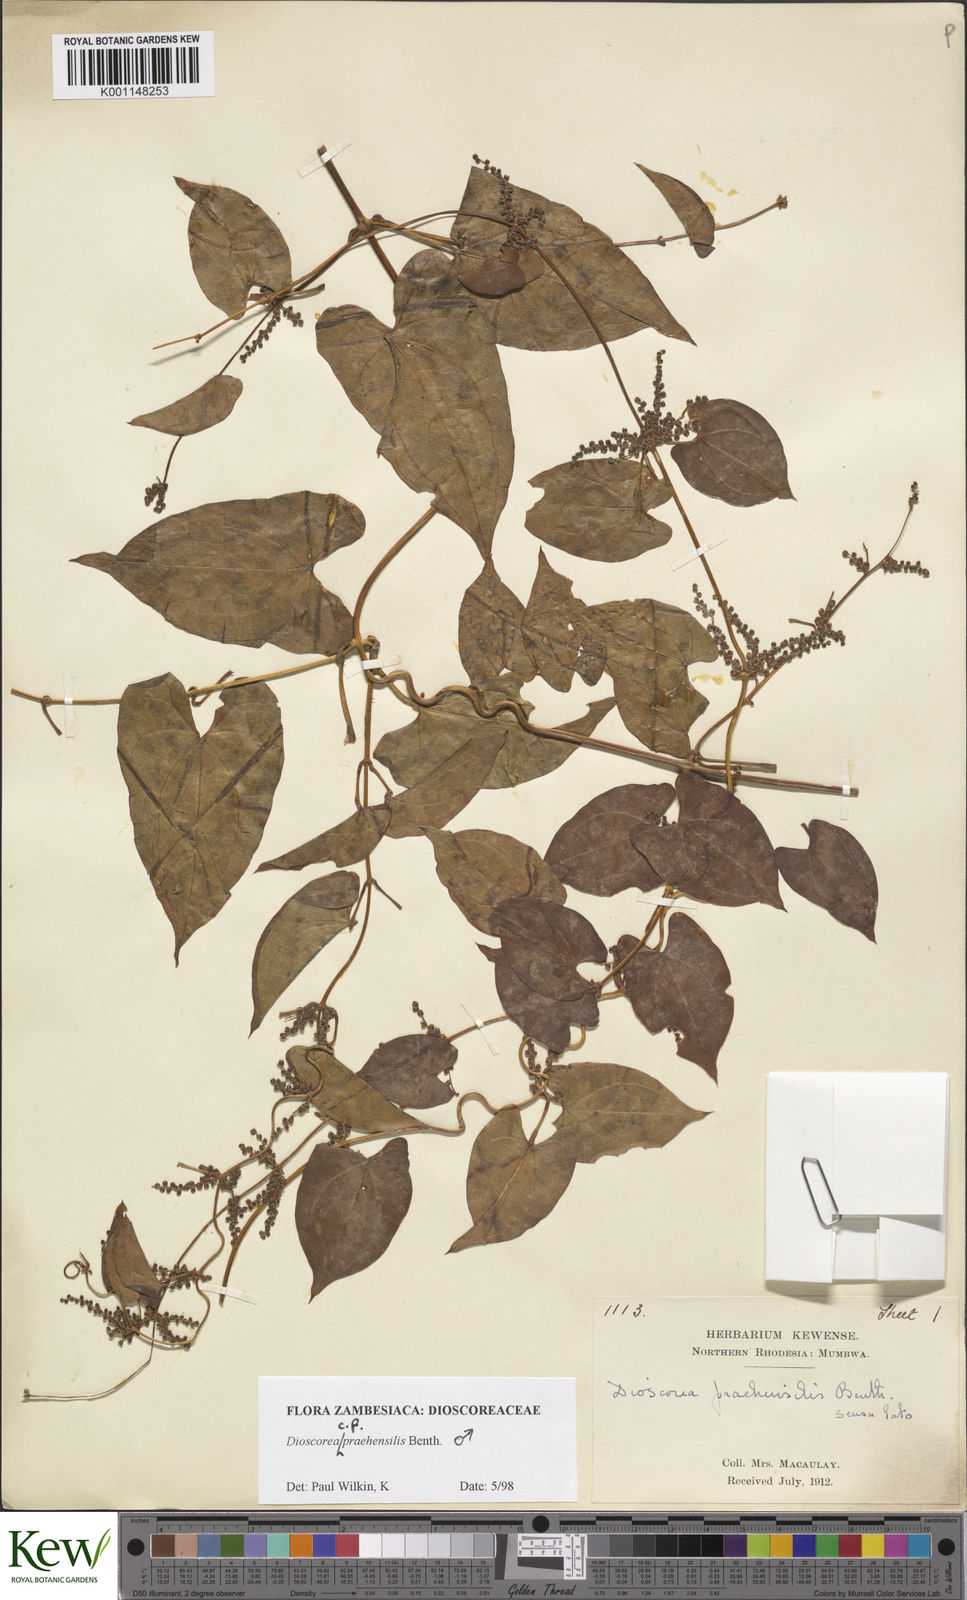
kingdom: Plantae
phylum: Tracheophyta
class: Liliopsida
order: Dioscoreales
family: Dioscoreaceae
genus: Dioscorea
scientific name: Dioscorea praehensilis
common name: Bush yam
